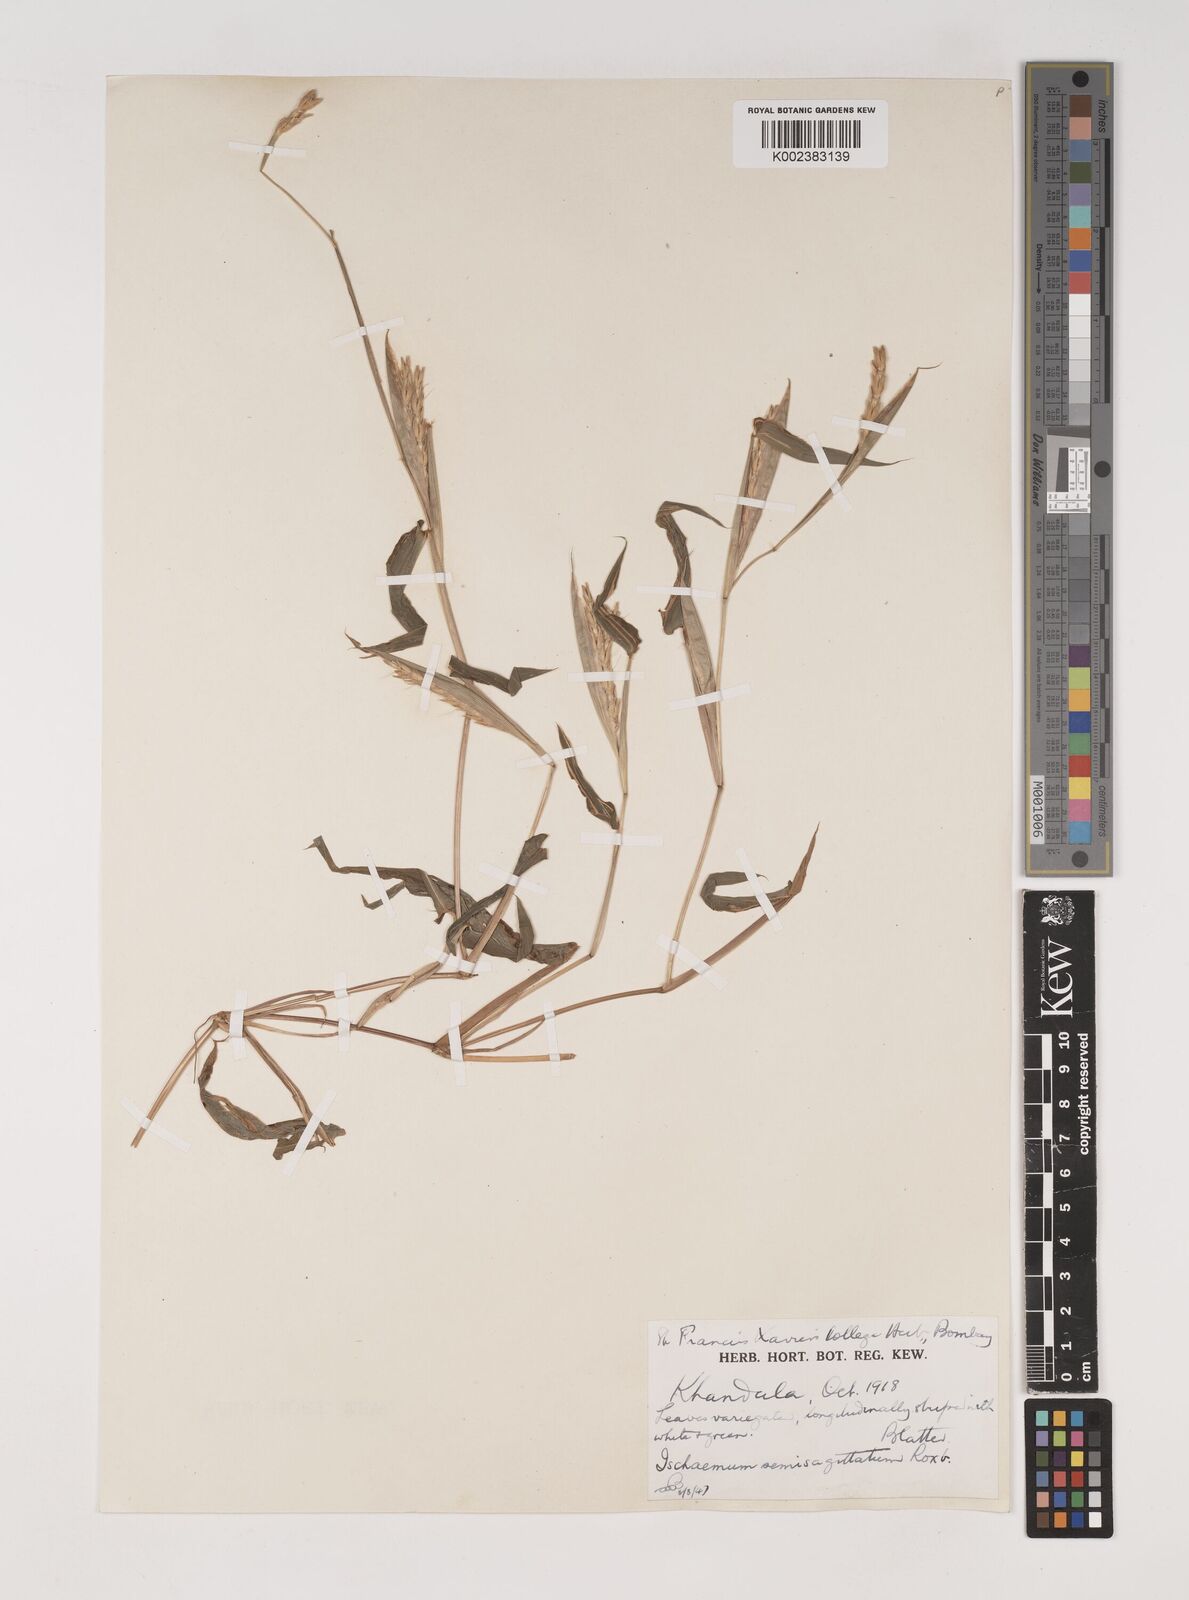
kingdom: Plantae
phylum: Tracheophyta
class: Liliopsida
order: Poales
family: Poaceae
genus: Ischaemum
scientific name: Ischaemum semisagittatum
